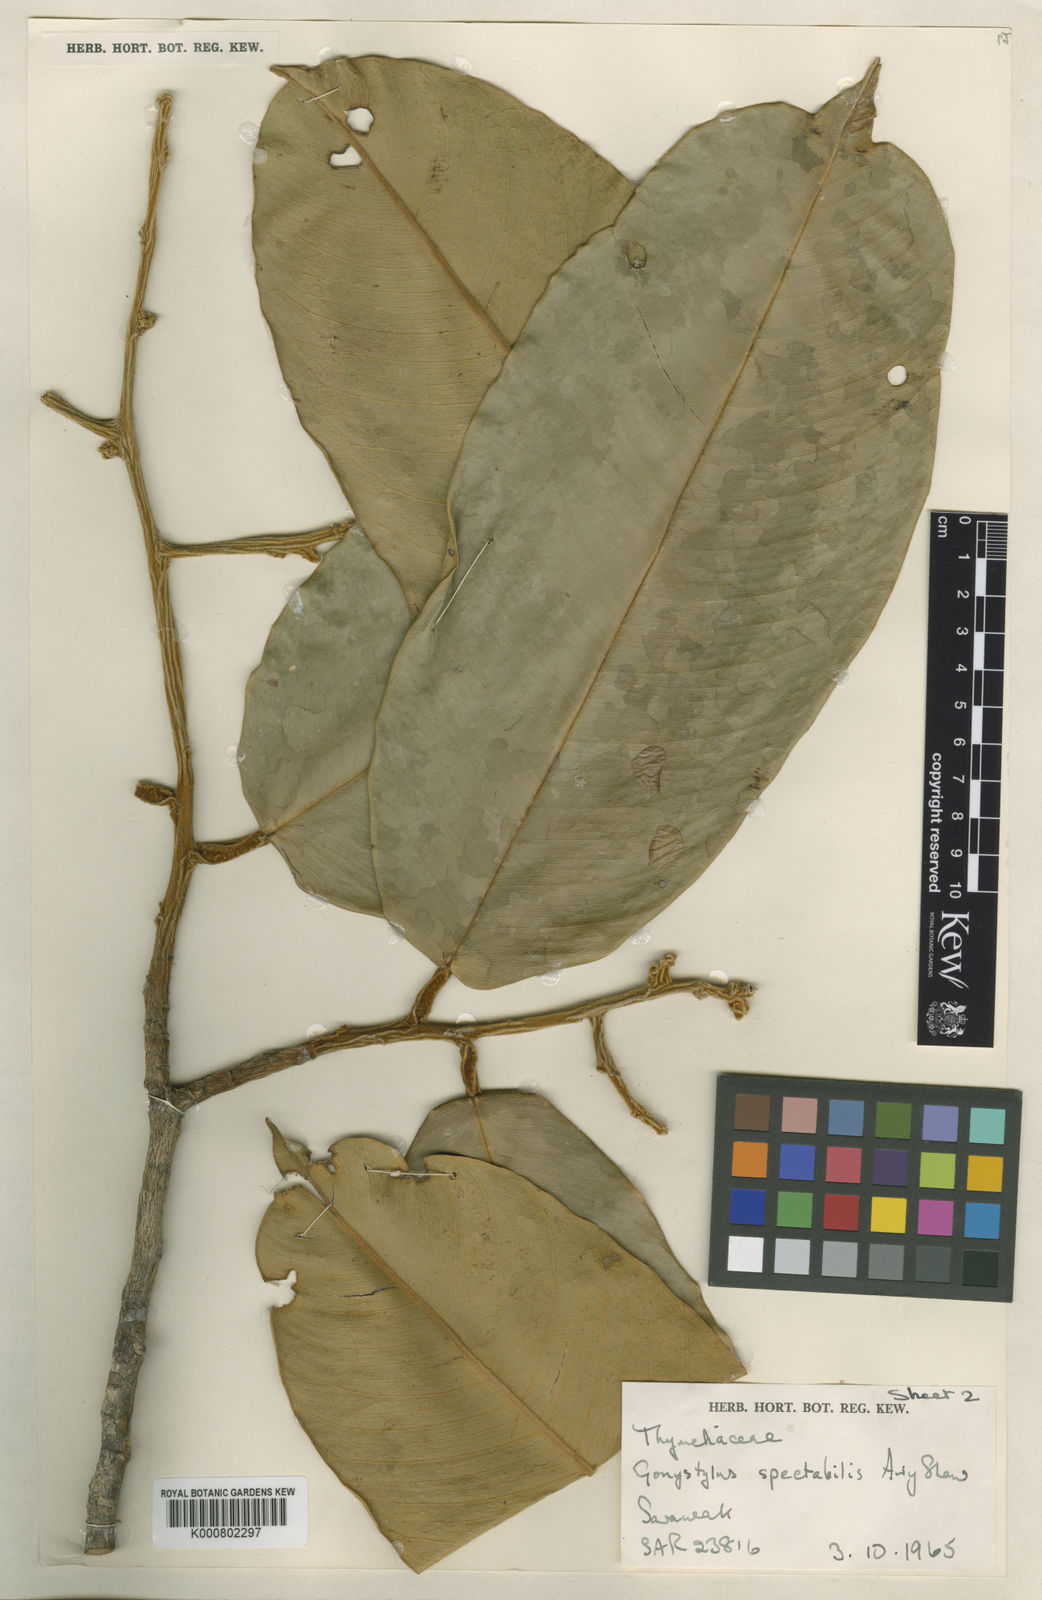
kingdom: Plantae
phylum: Tracheophyta
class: Magnoliopsida
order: Malvales
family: Thymelaeaceae
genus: Gonystylus
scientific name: Gonystylus spectabilis
